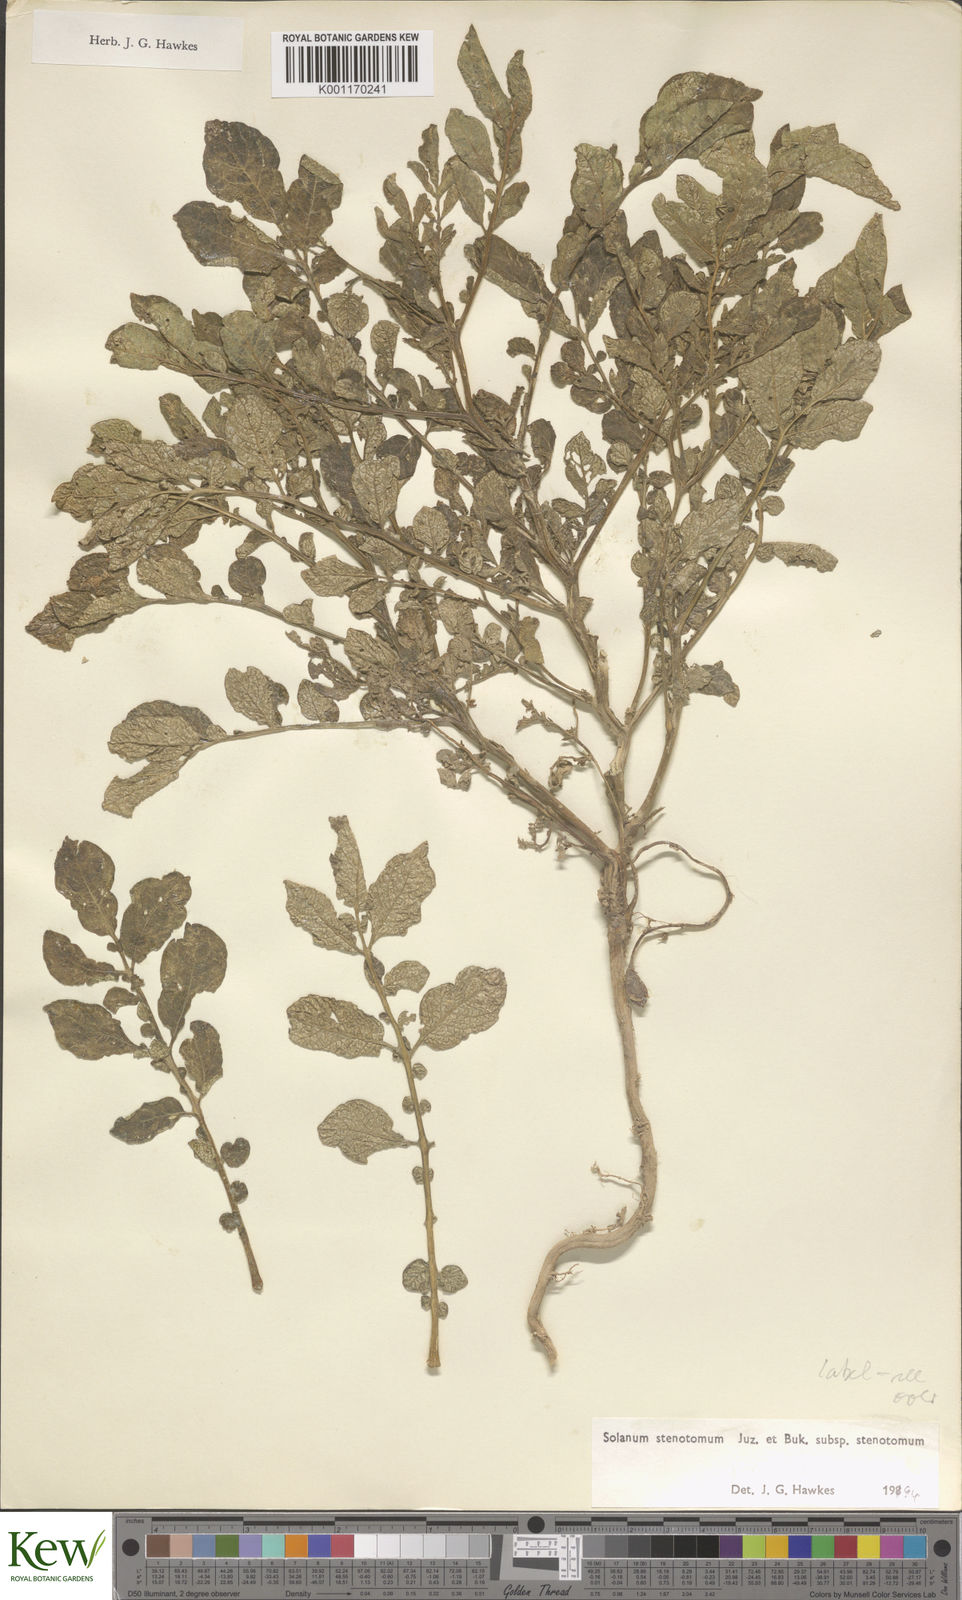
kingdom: Plantae
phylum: Tracheophyta
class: Magnoliopsida
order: Solanales
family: Solanaceae
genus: Solanum
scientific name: Solanum tuberosum
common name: Potato
